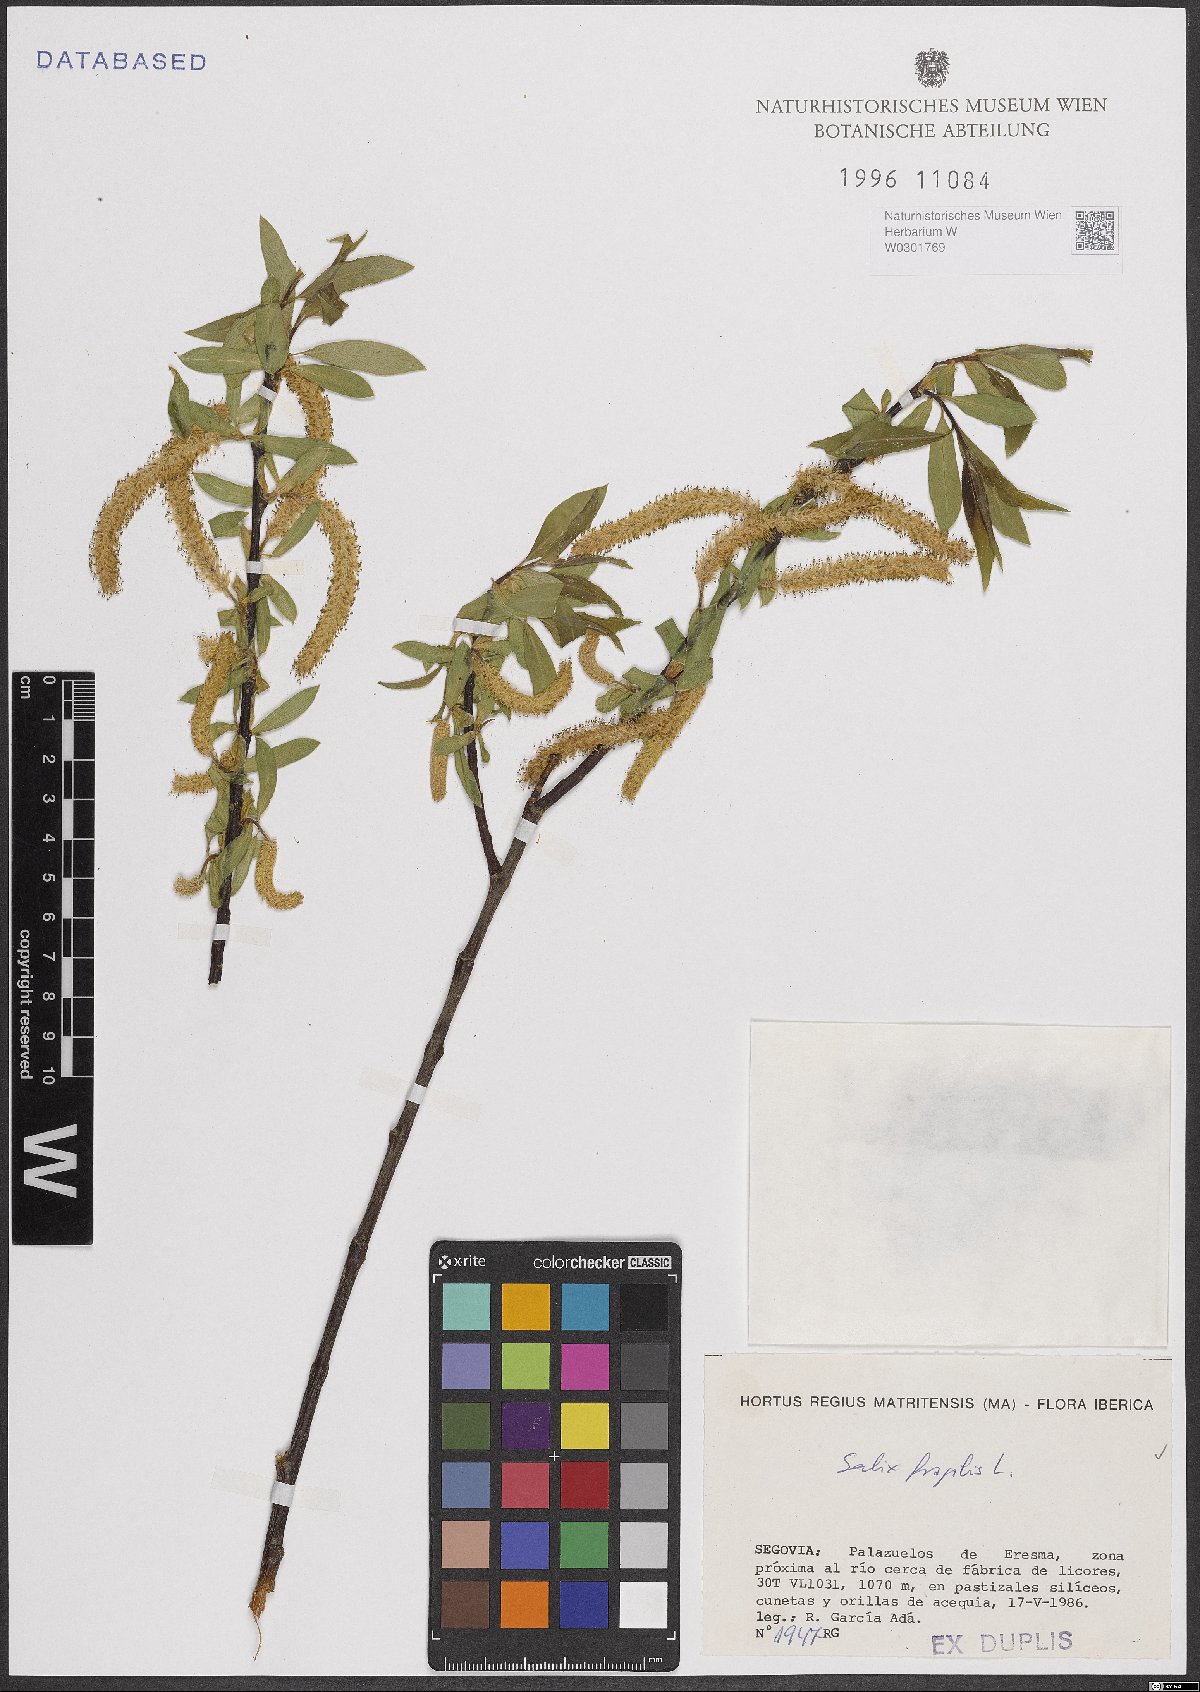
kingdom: Plantae
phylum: Tracheophyta
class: Magnoliopsida
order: Malpighiales
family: Salicaceae
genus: Salix
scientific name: Salix fragilis
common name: Crack willow
